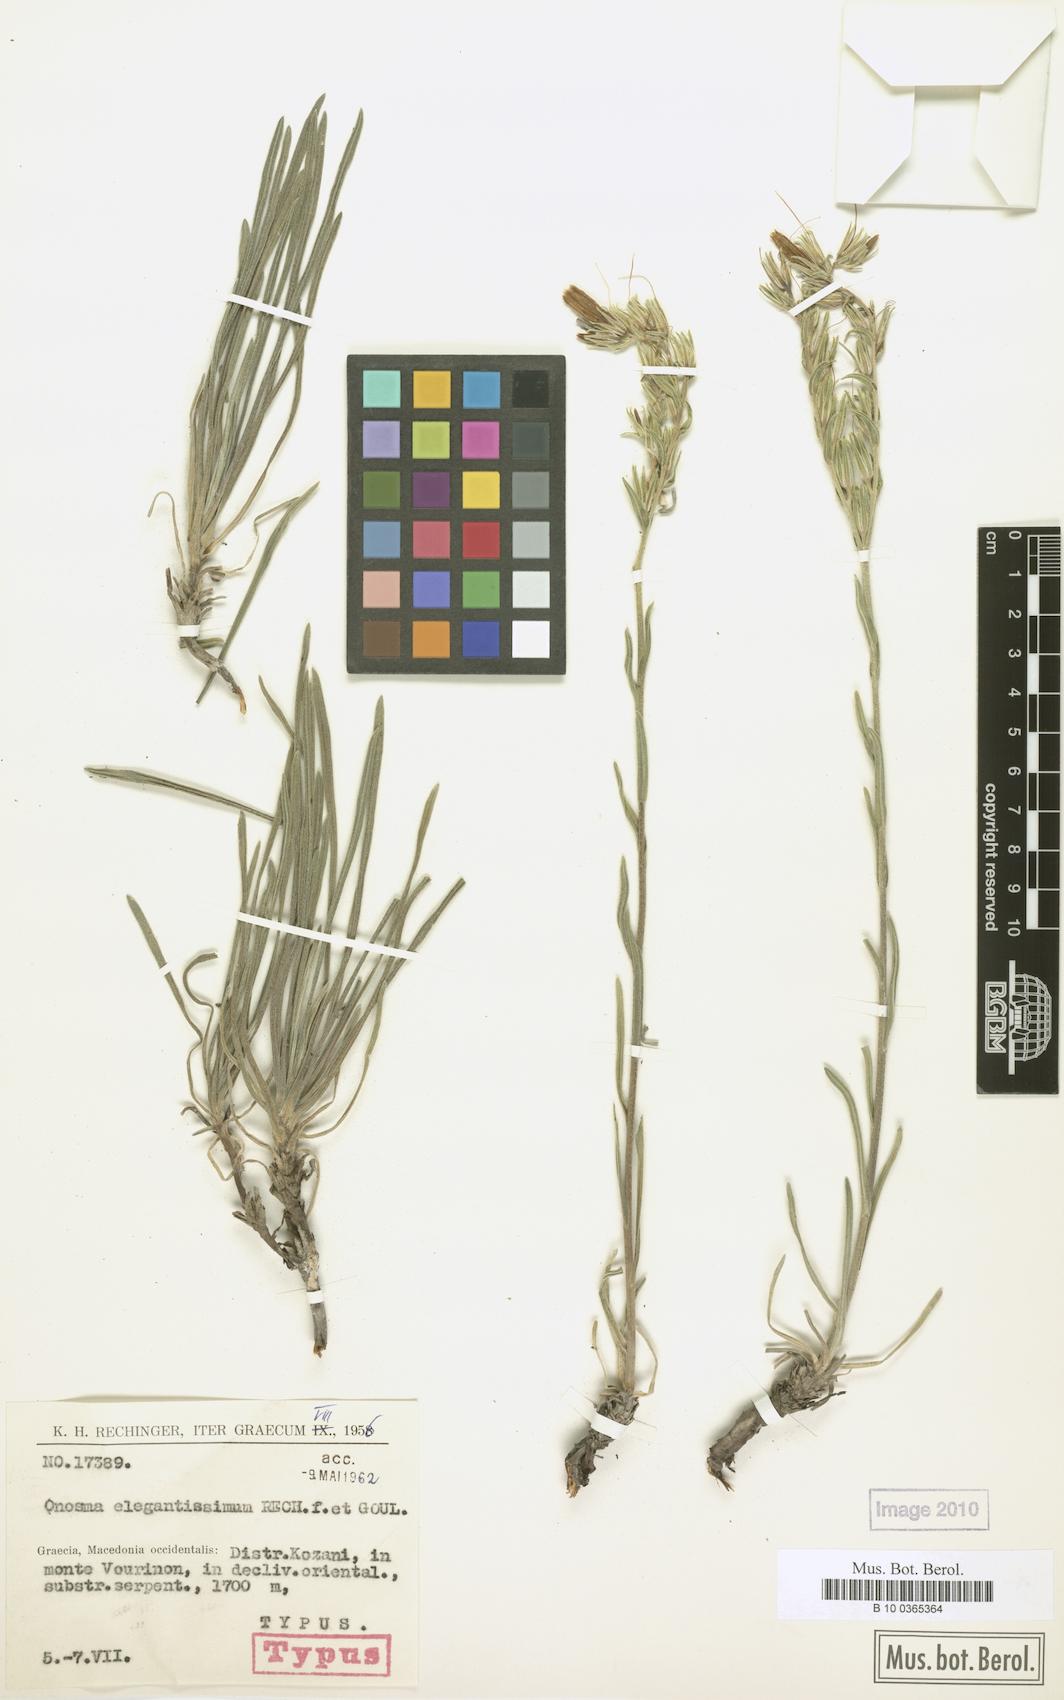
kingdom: Plantae
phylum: Tracheophyta
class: Magnoliopsida
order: Boraginales
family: Boraginaceae
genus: Onosma
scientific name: Onosma elegantissima
